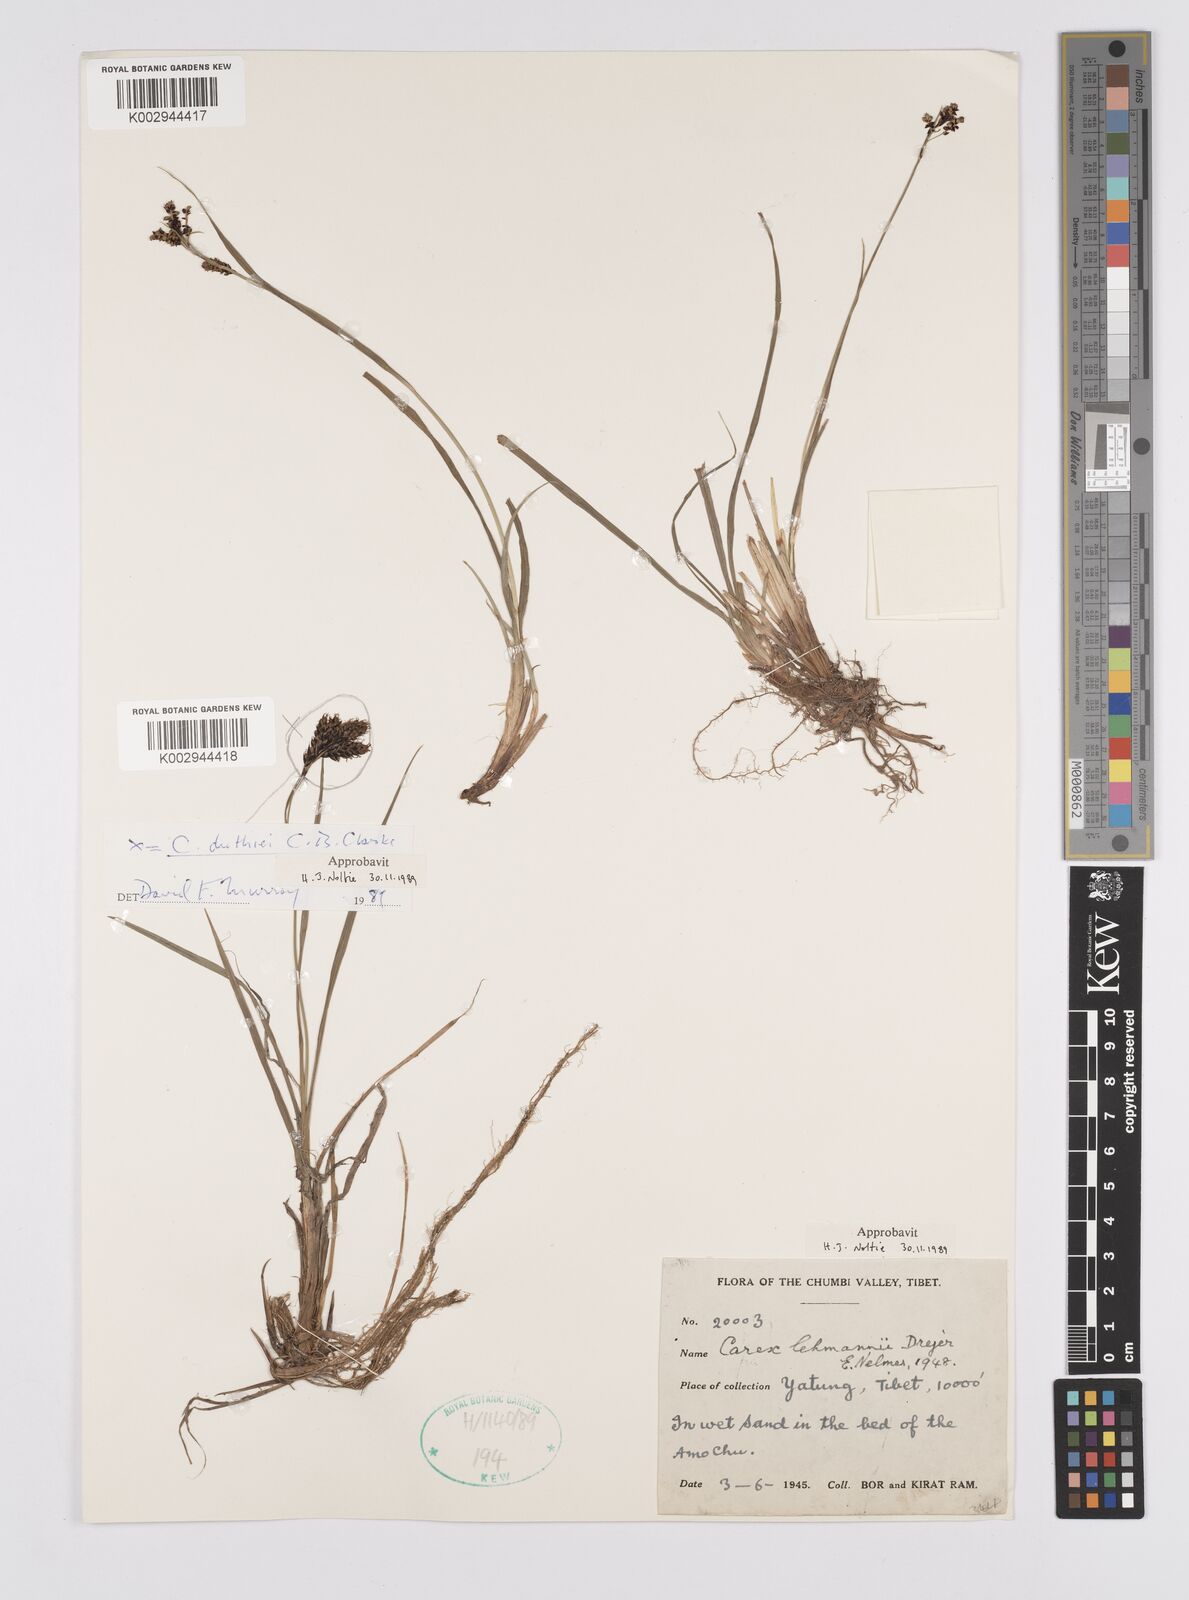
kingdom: Plantae
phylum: Tracheophyta
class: Liliopsida
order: Poales
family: Cyperaceae
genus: Carex
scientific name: Carex lehmannii
